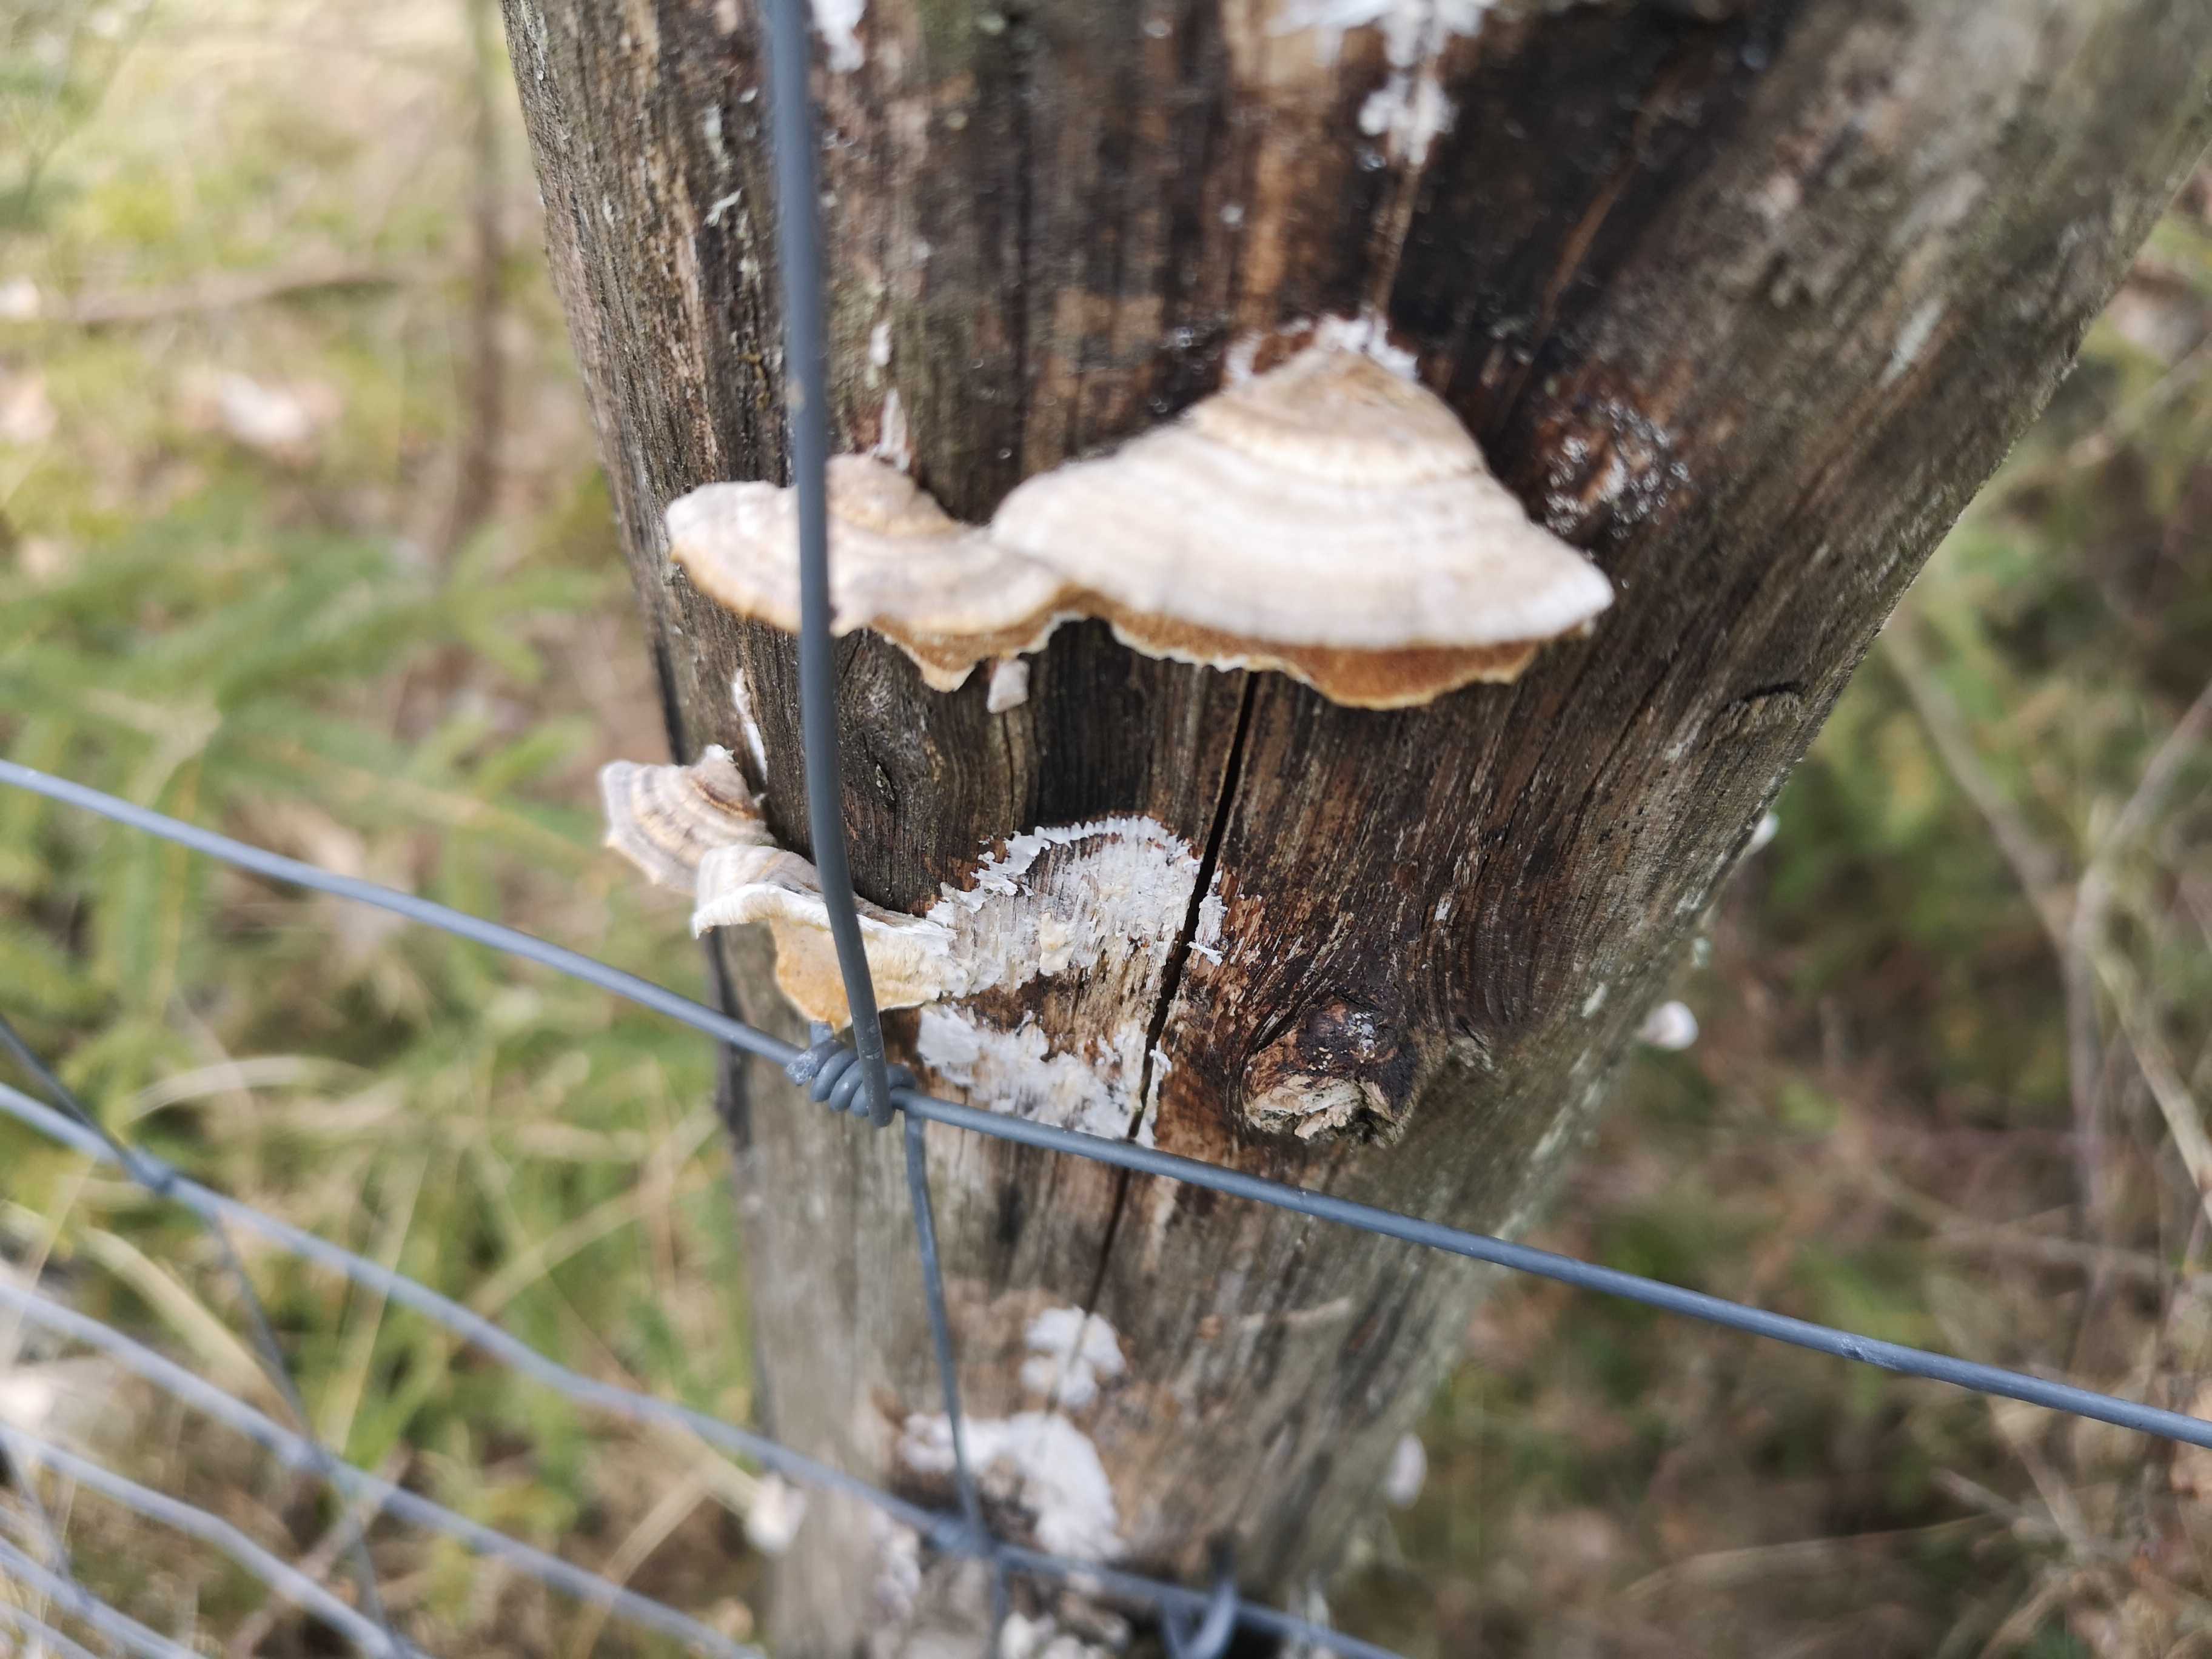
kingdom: Fungi
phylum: Basidiomycota
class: Agaricomycetes
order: Polyporales
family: Polyporaceae
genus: Trametes
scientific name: Trametes versicolor
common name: broget læderporesvamp
